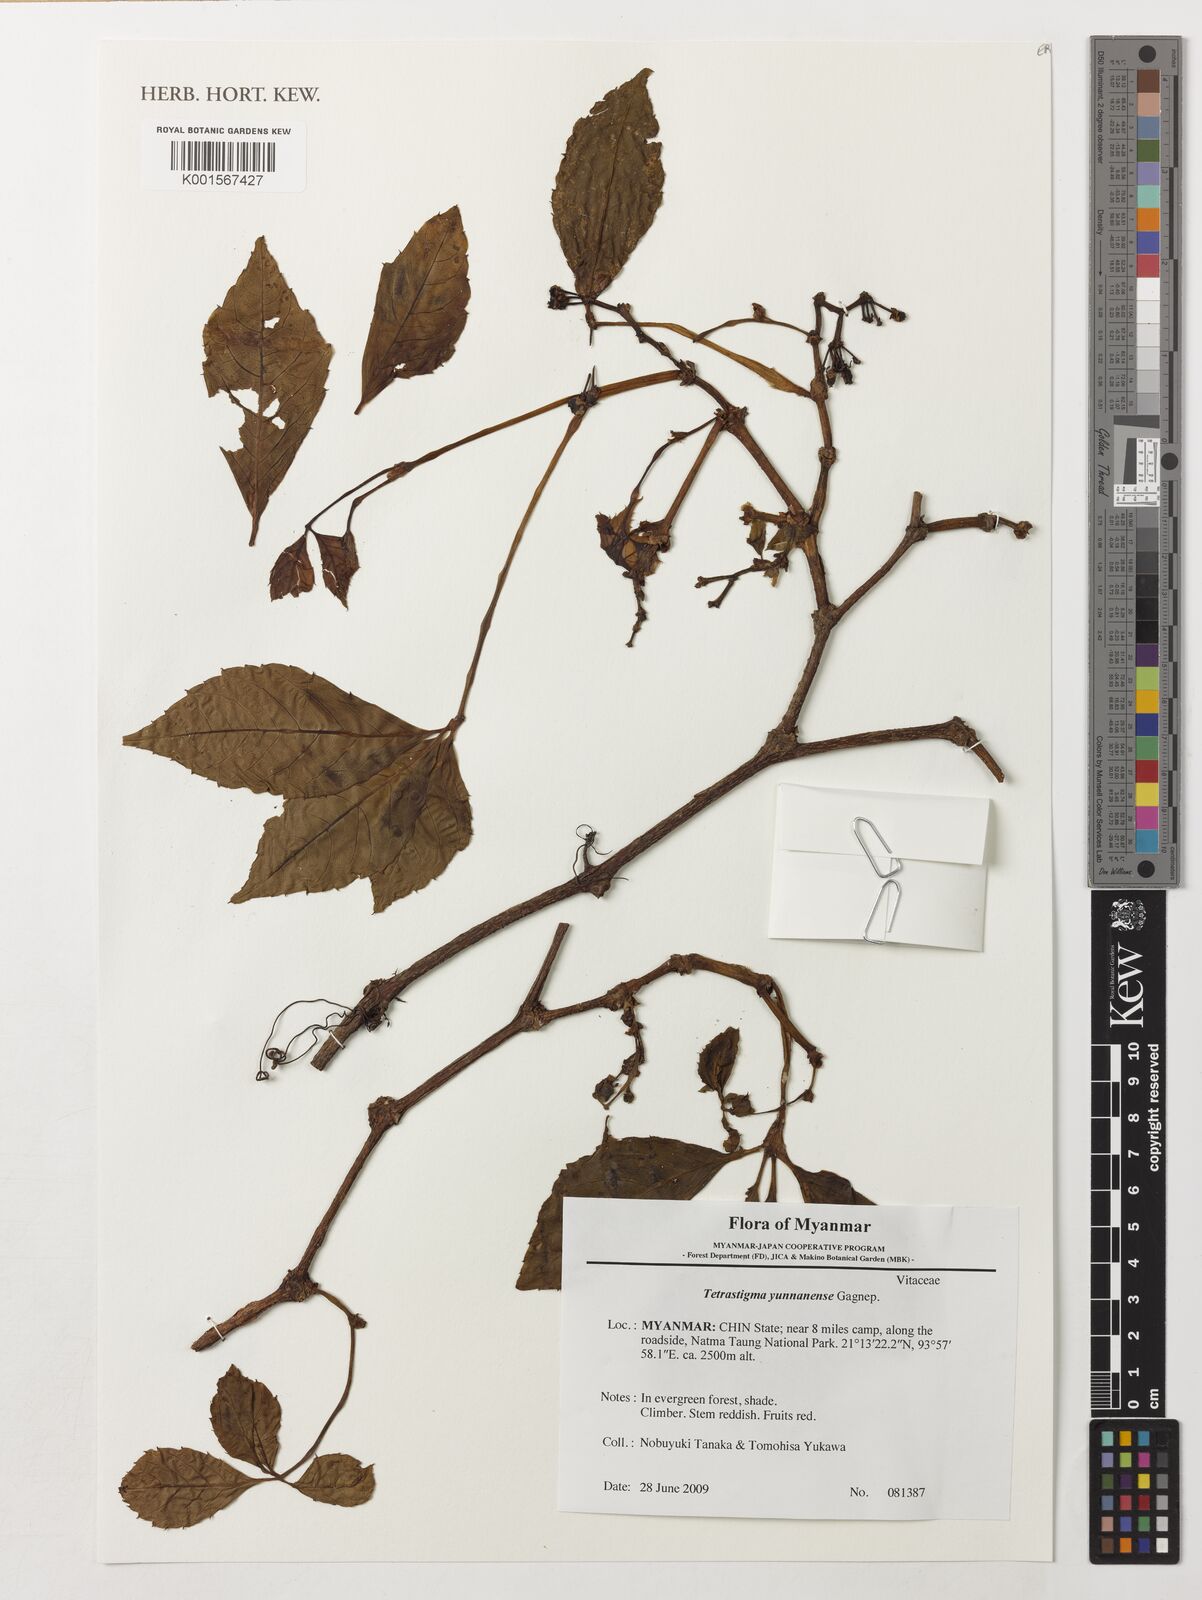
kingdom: Plantae
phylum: Tracheophyta
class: Magnoliopsida
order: Vitales
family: Vitaceae
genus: Tetrastigma
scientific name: Tetrastigma yunnanense
